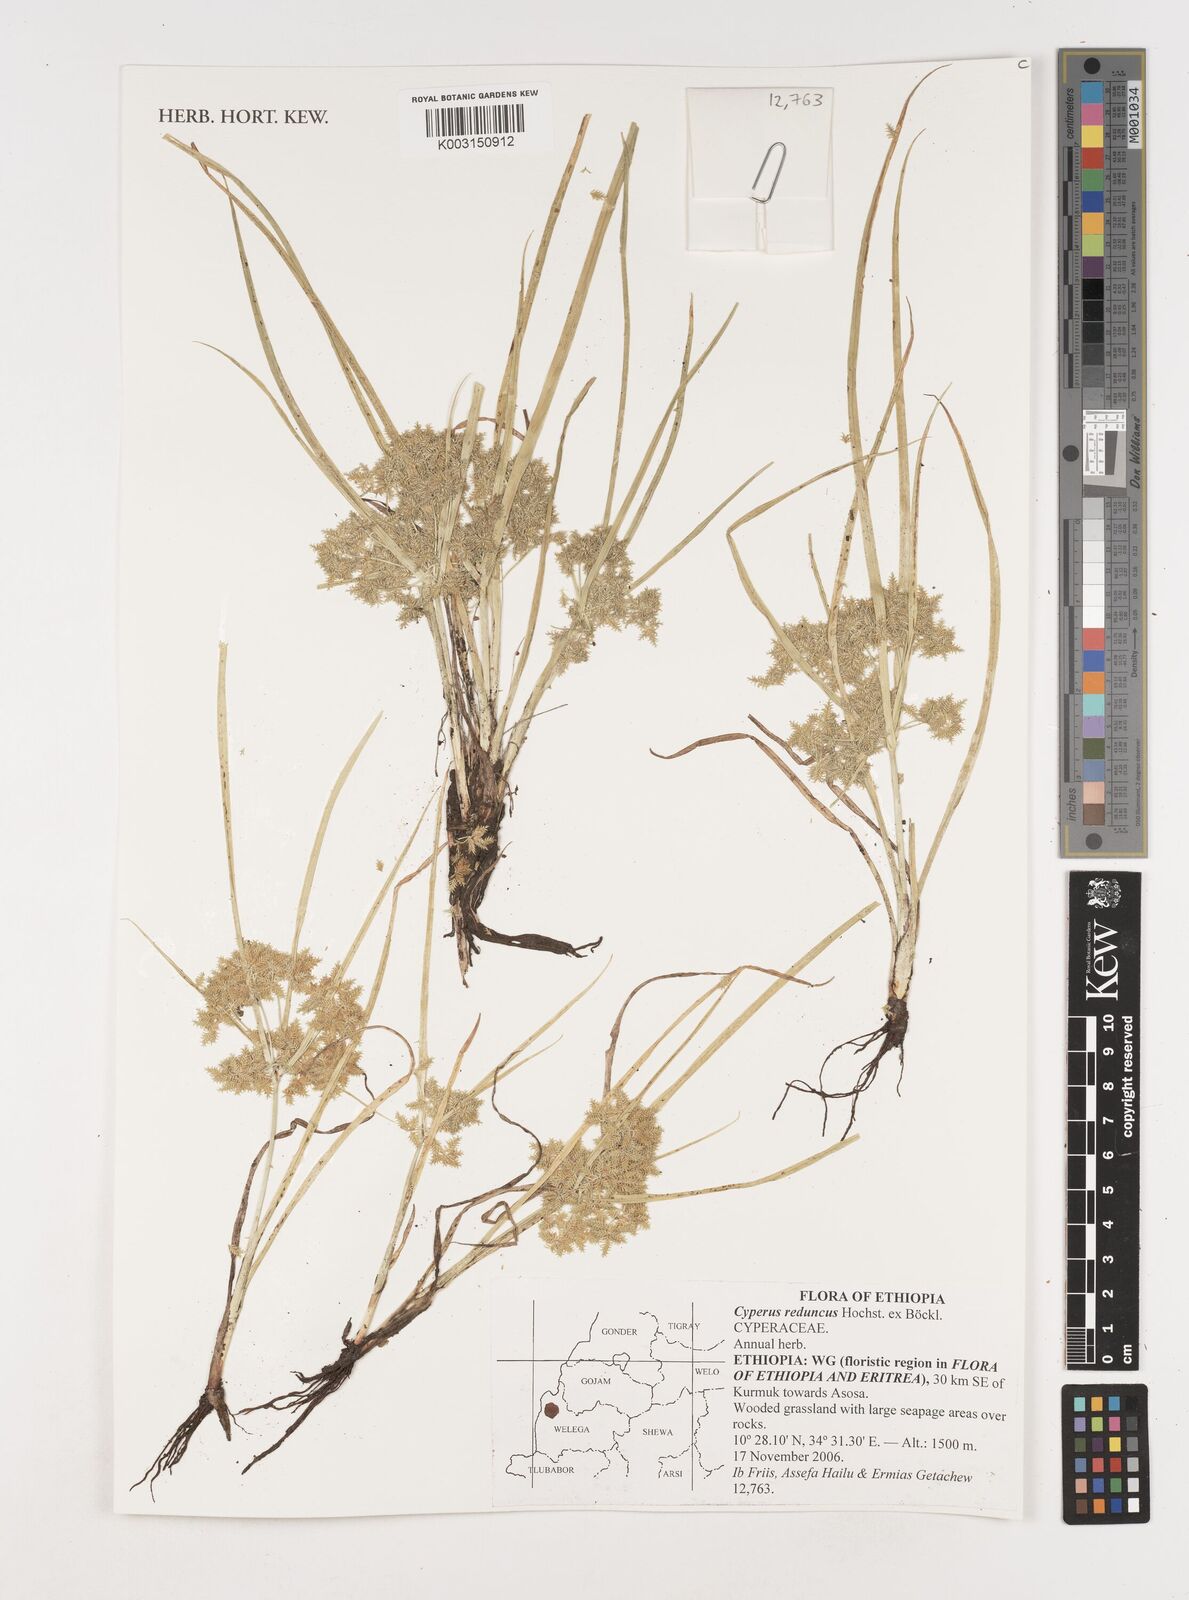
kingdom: Plantae
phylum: Tracheophyta
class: Liliopsida
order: Poales
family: Cyperaceae
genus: Cyperus
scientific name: Cyperus reduncus
